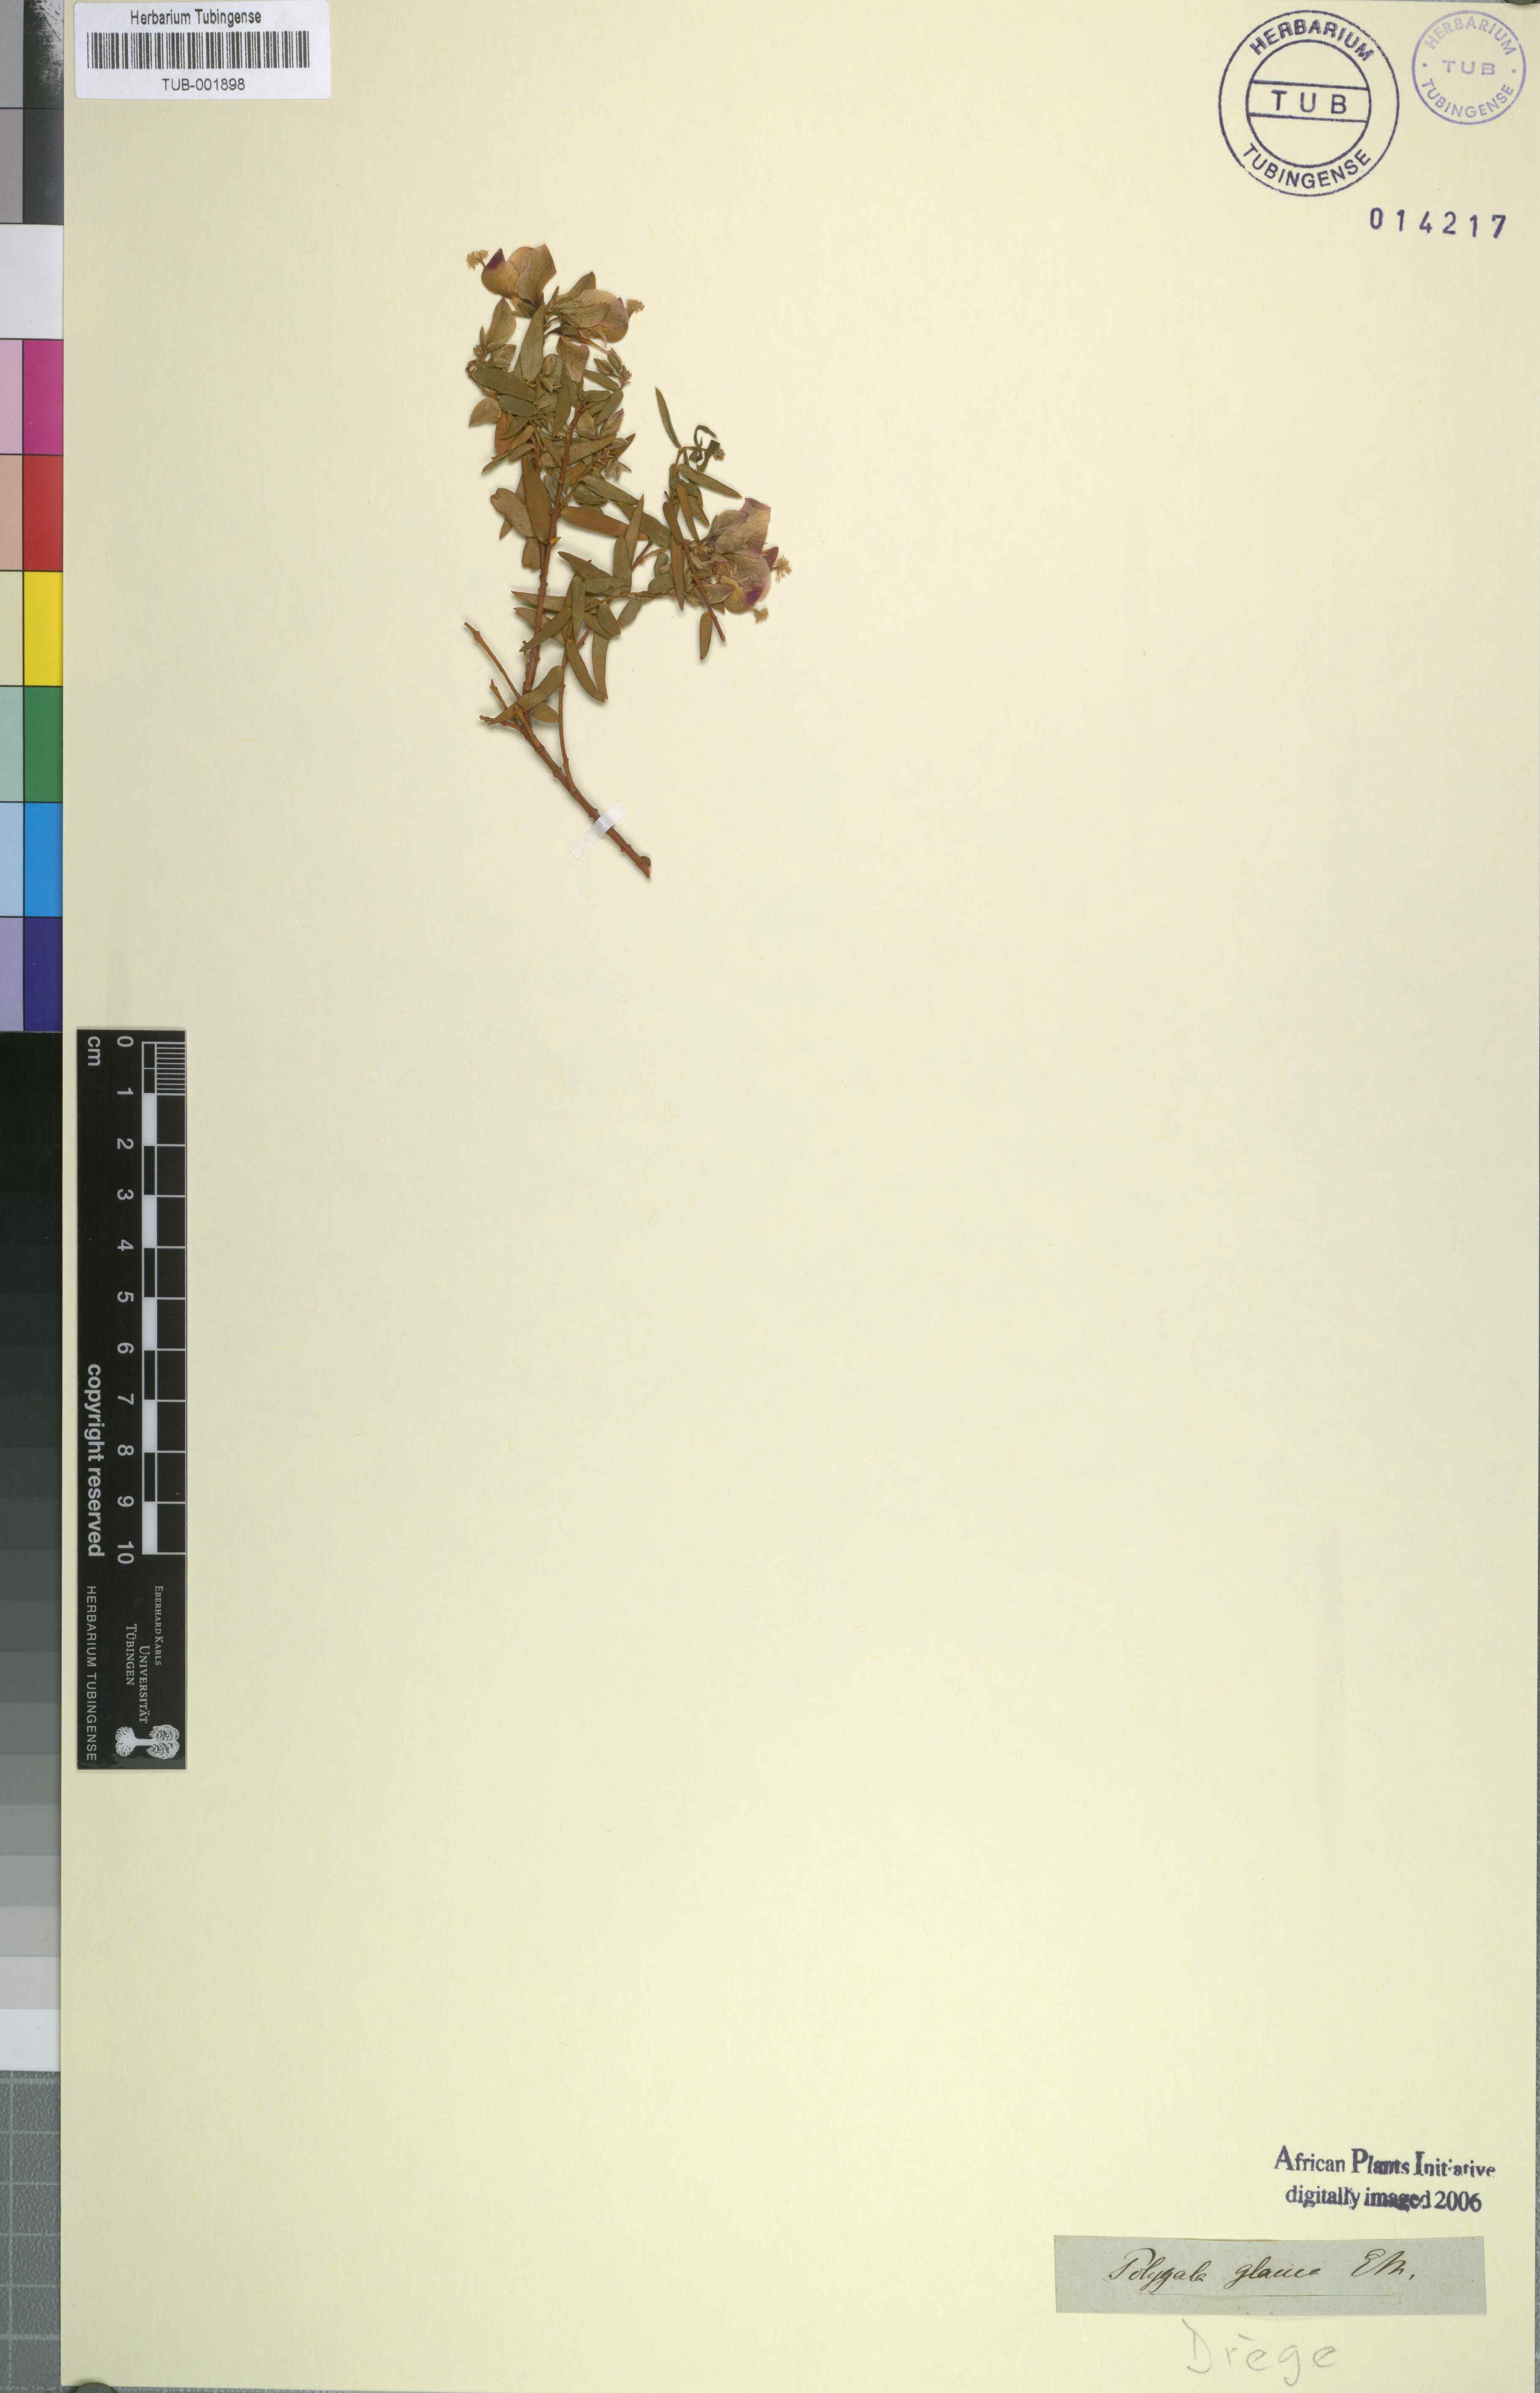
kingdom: Plantae
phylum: Tracheophyta
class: Magnoliopsida
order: Fabales
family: Polygalaceae
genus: Polygala
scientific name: Polygala fruticosa
